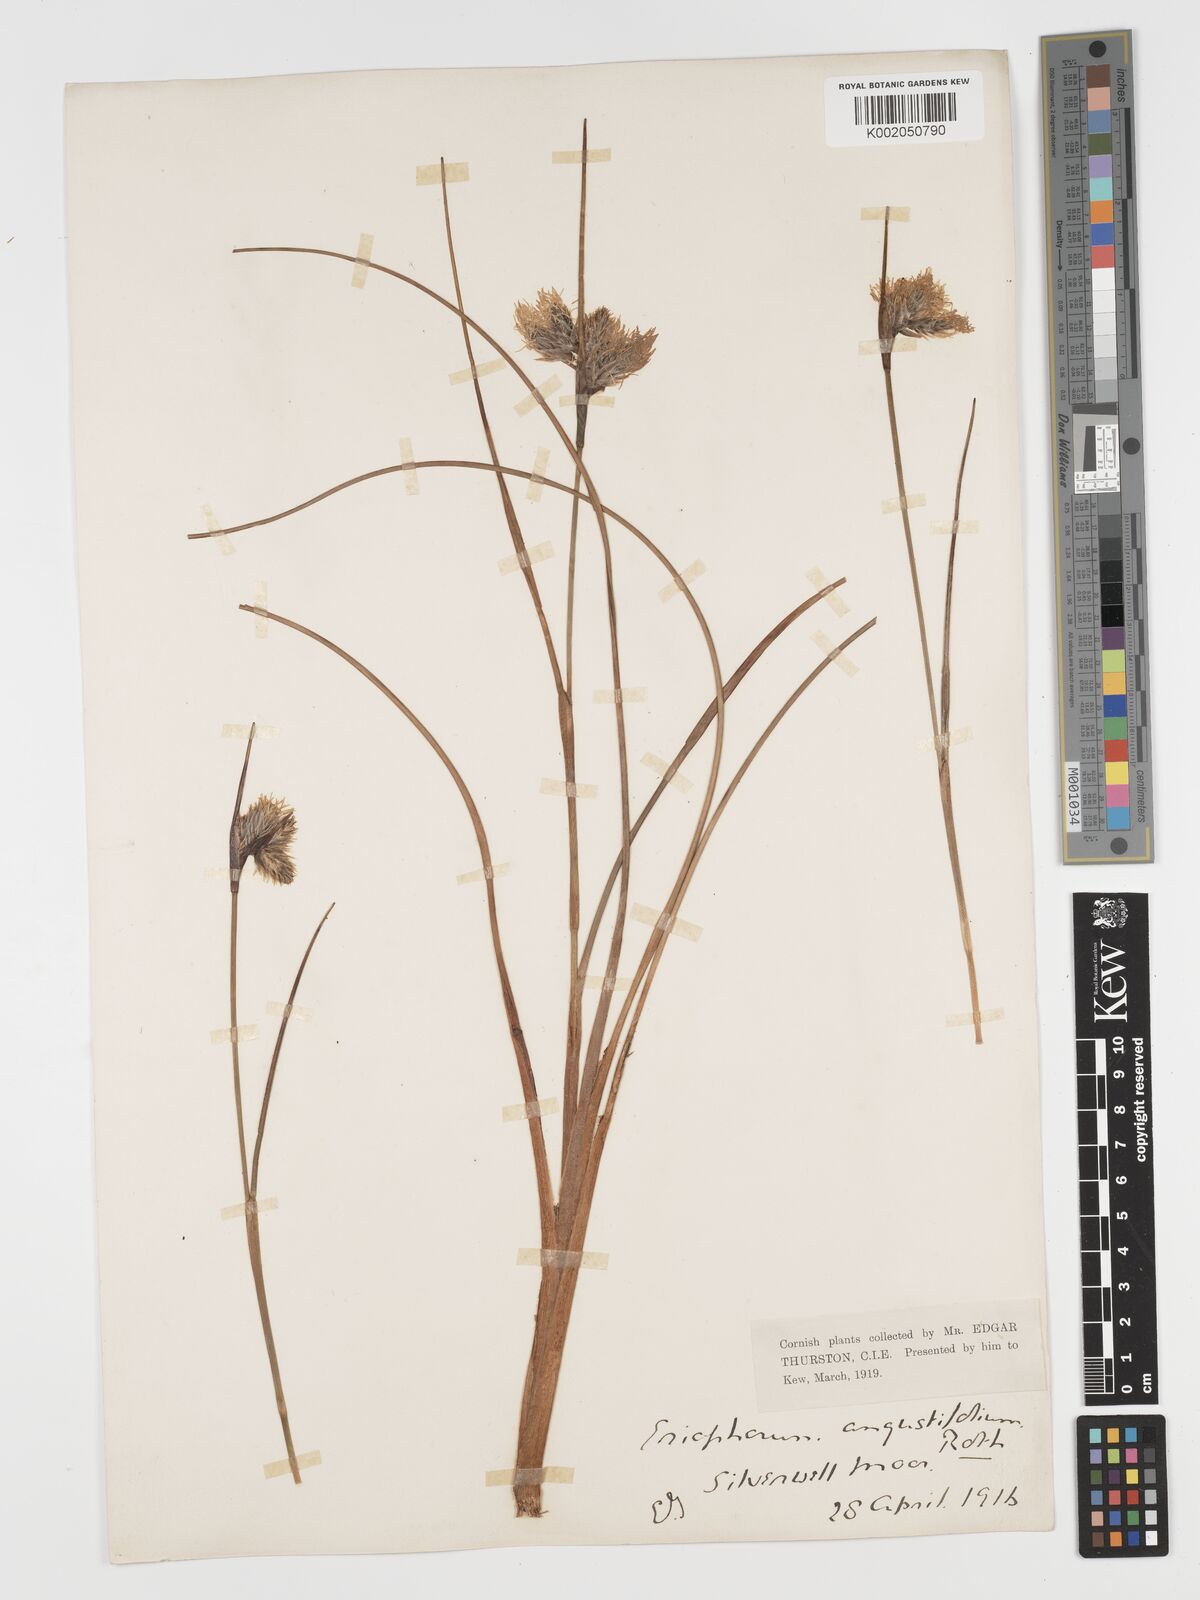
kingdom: Plantae
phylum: Tracheophyta
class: Liliopsida
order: Poales
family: Cyperaceae
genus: Eriophorum
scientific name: Eriophorum angustifolium
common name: Common cottongrass
